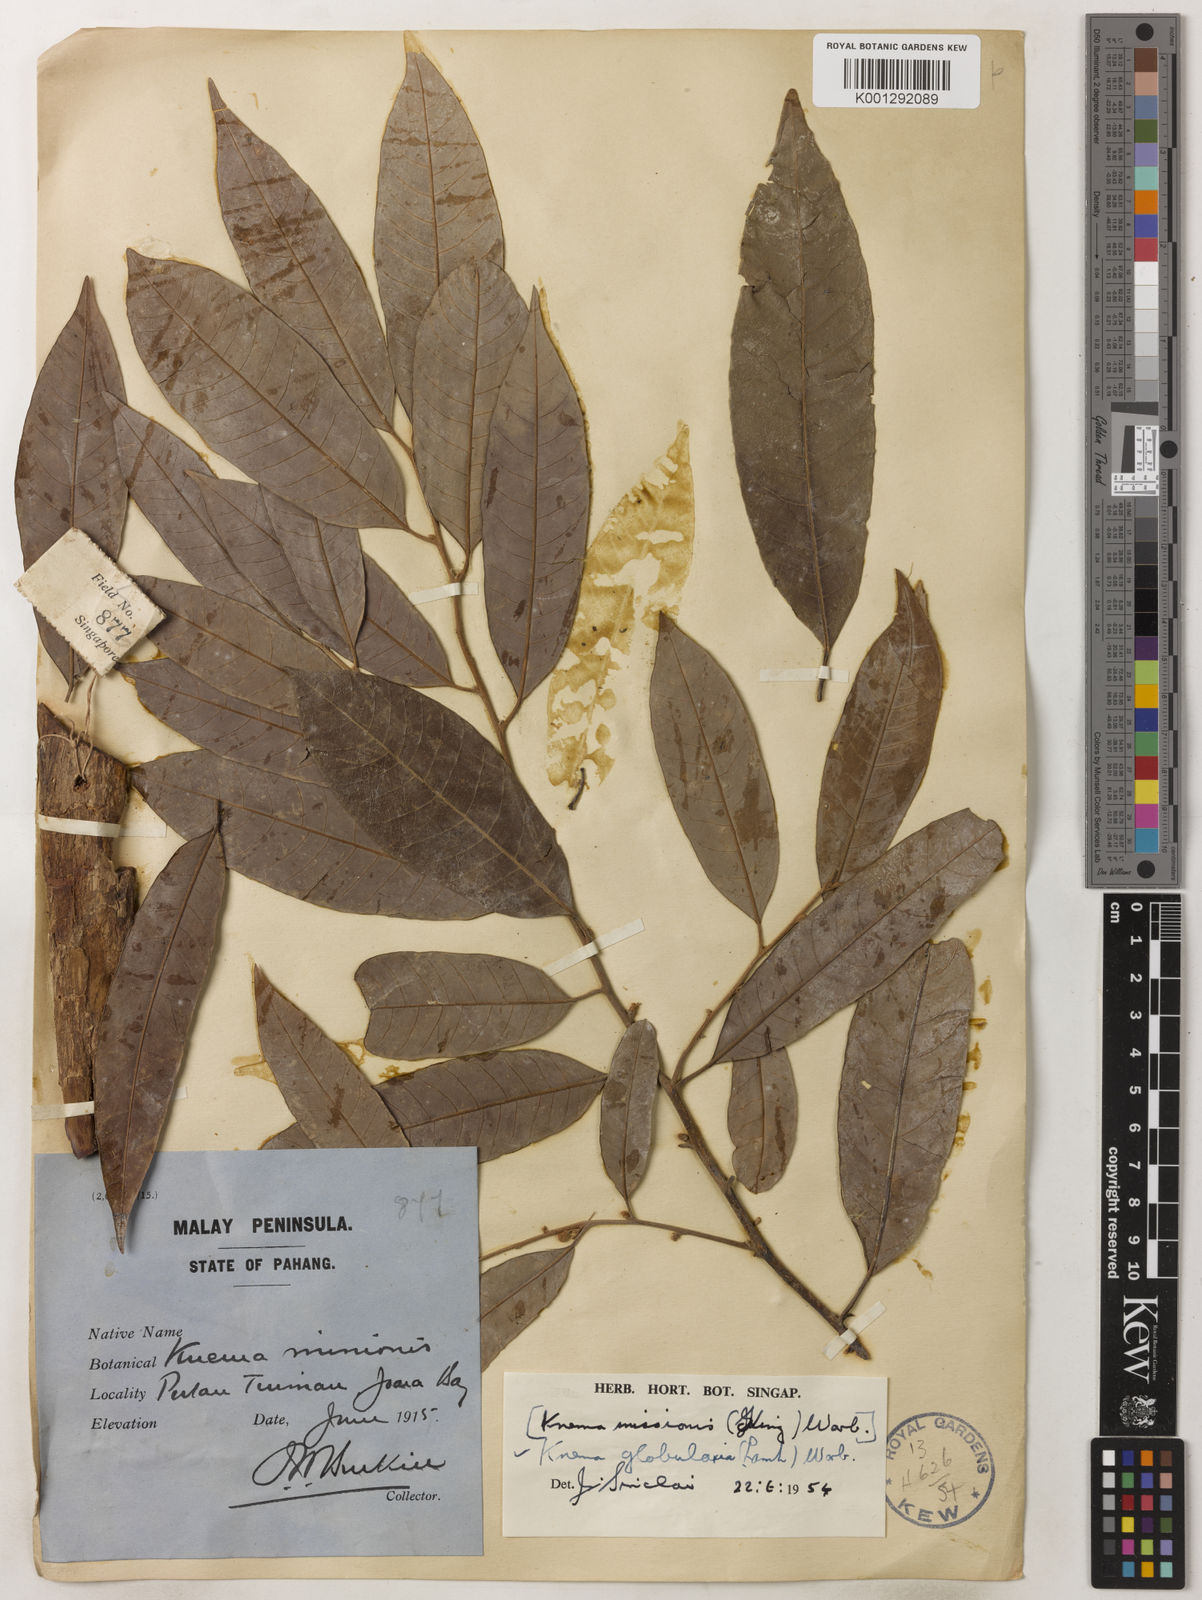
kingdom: Plantae
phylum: Tracheophyta
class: Magnoliopsida
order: Magnoliales
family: Myristicaceae
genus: Knema
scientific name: Knema globularia
